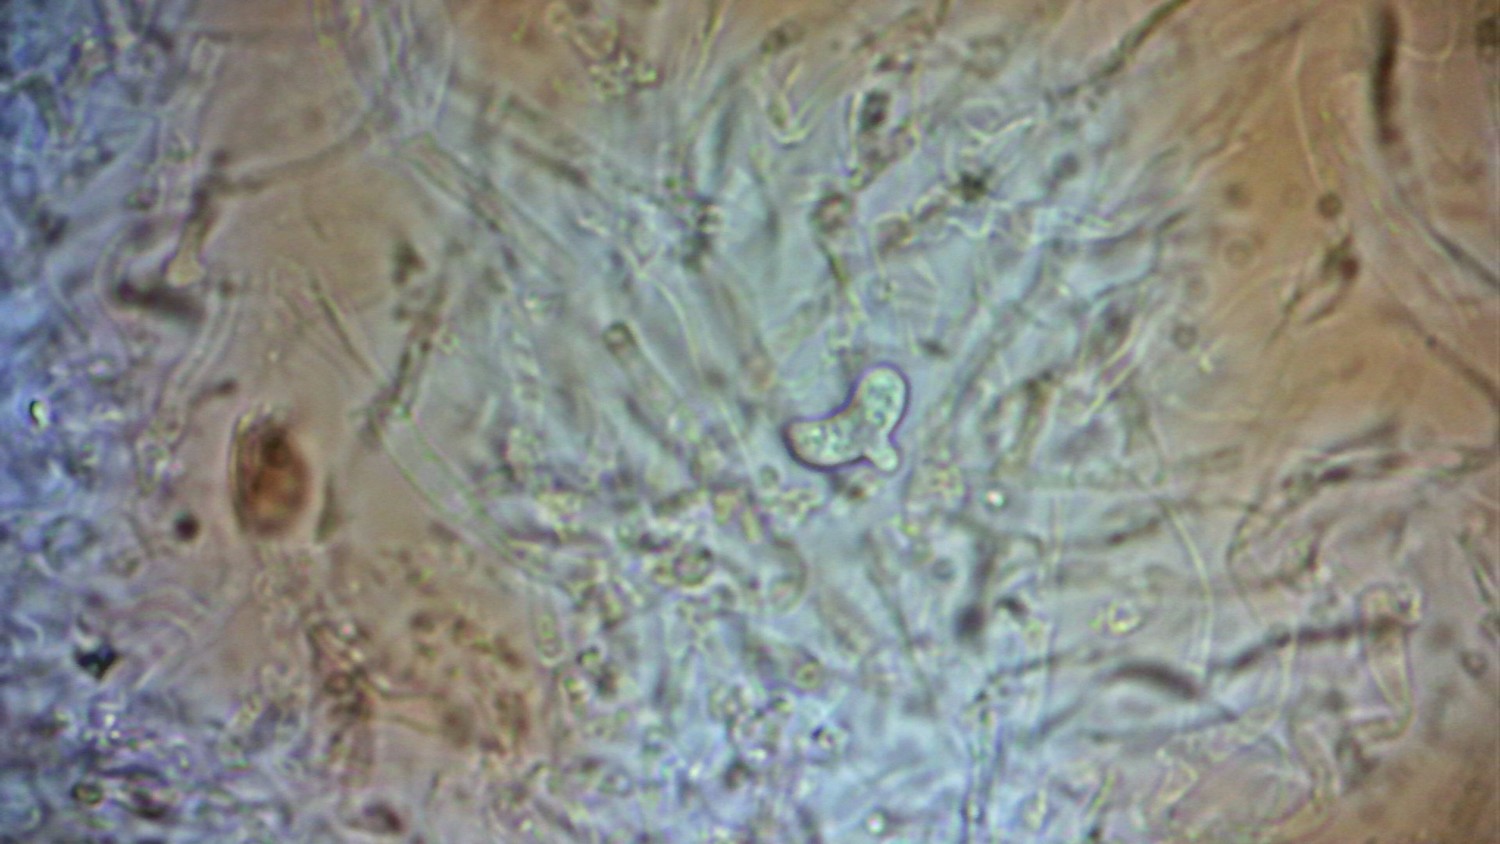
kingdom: Fungi
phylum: Basidiomycota
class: Agaricomycetes
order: Sebacinales
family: Sebacinaceae
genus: Sebacina
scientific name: Sebacina grisea
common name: blågrå bævrehinde
